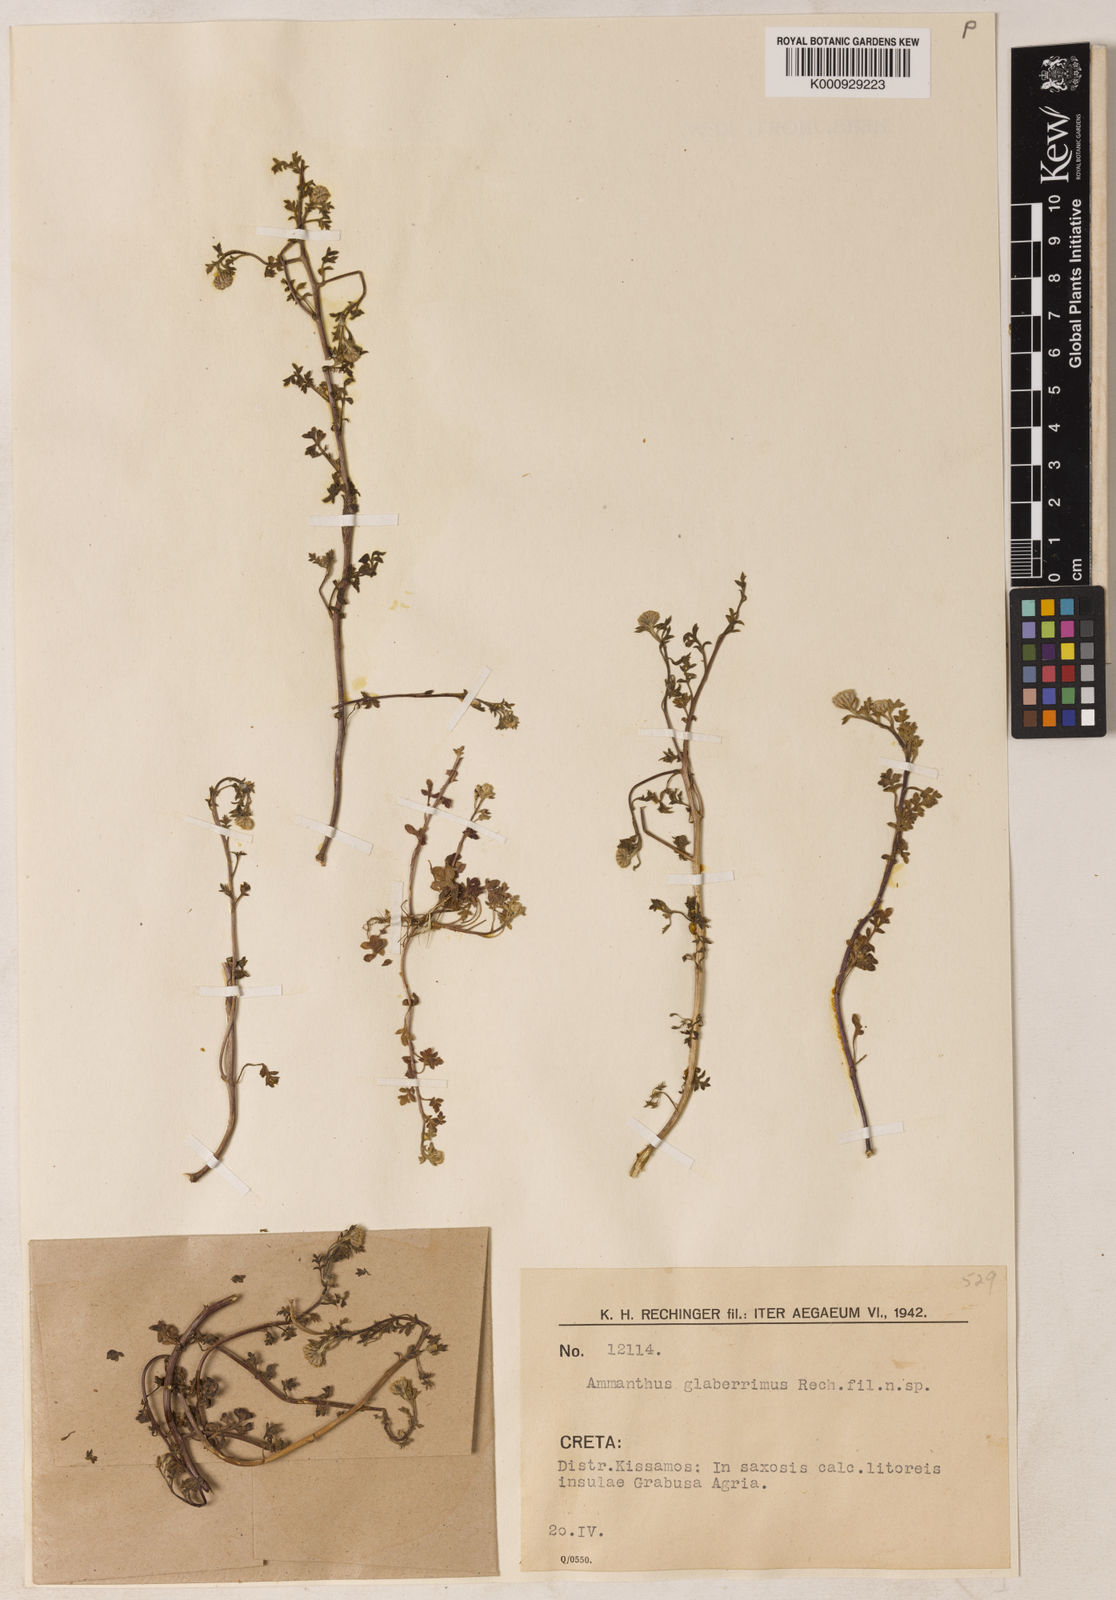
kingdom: Plantae
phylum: Tracheophyta
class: Magnoliopsida
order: Asterales
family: Asteraceae
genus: Anthemis
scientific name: Anthemis glaberrima
